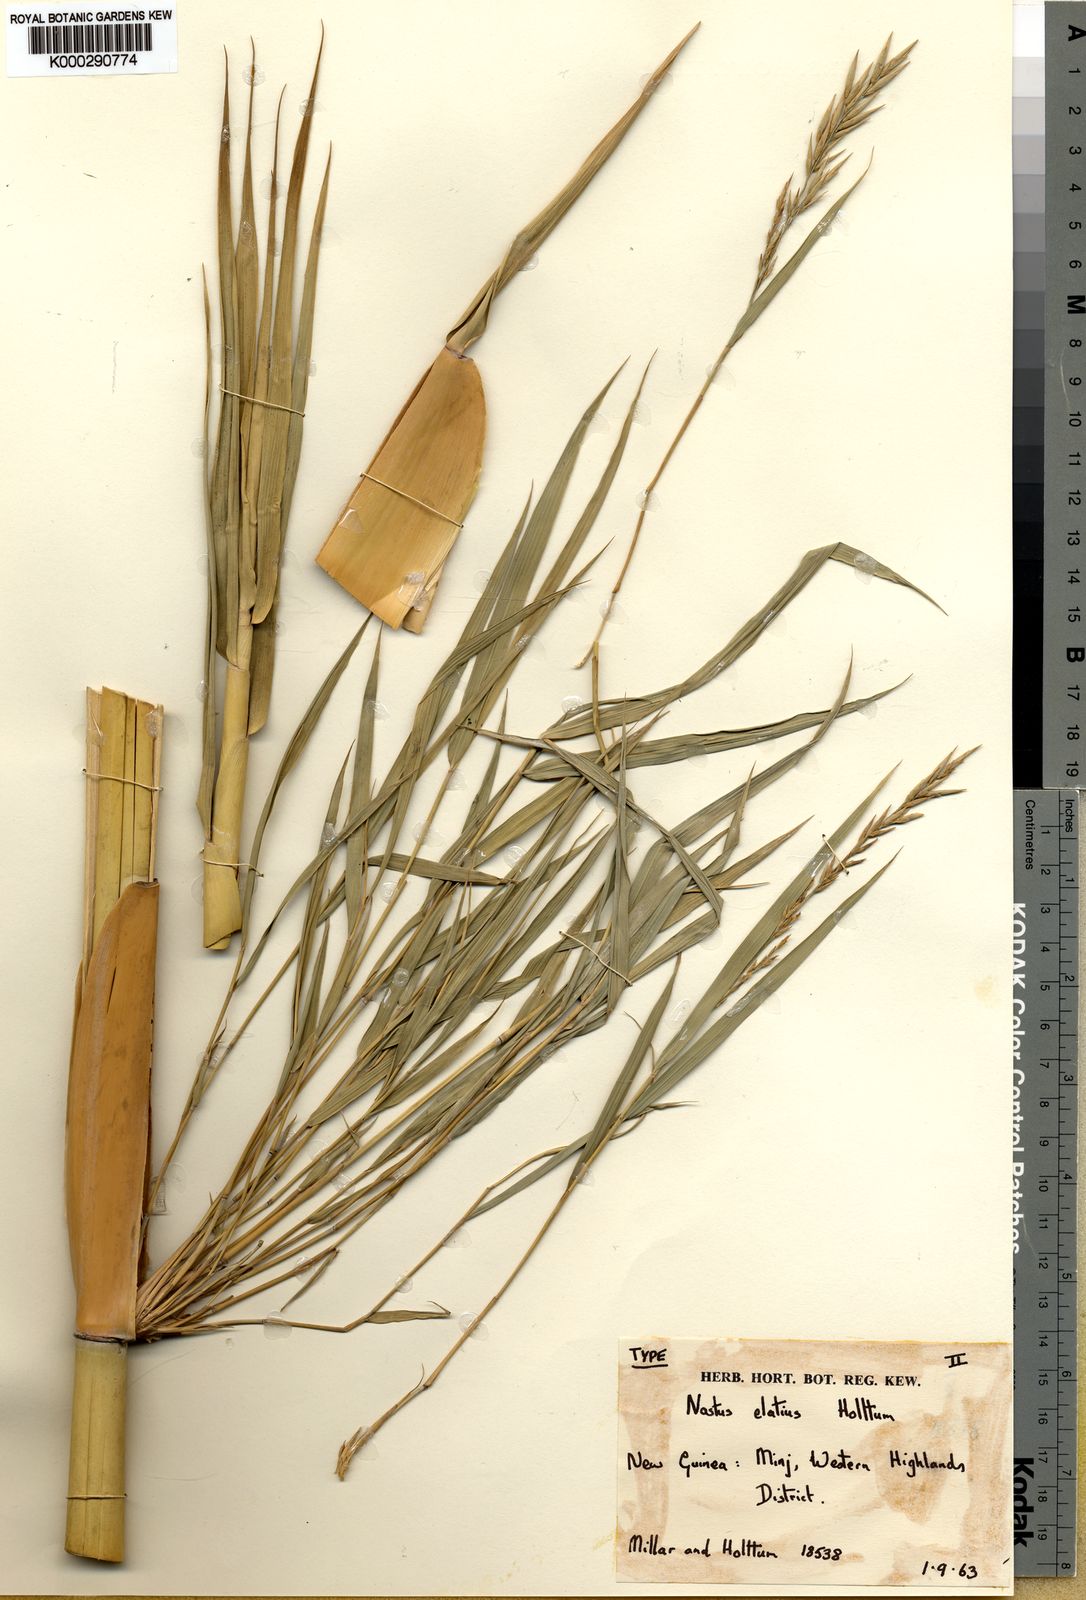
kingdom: Plantae
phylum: Tracheophyta
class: Liliopsida
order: Poales
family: Poaceae
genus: Chloothamnus
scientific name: Chloothamnus elegantissimus
